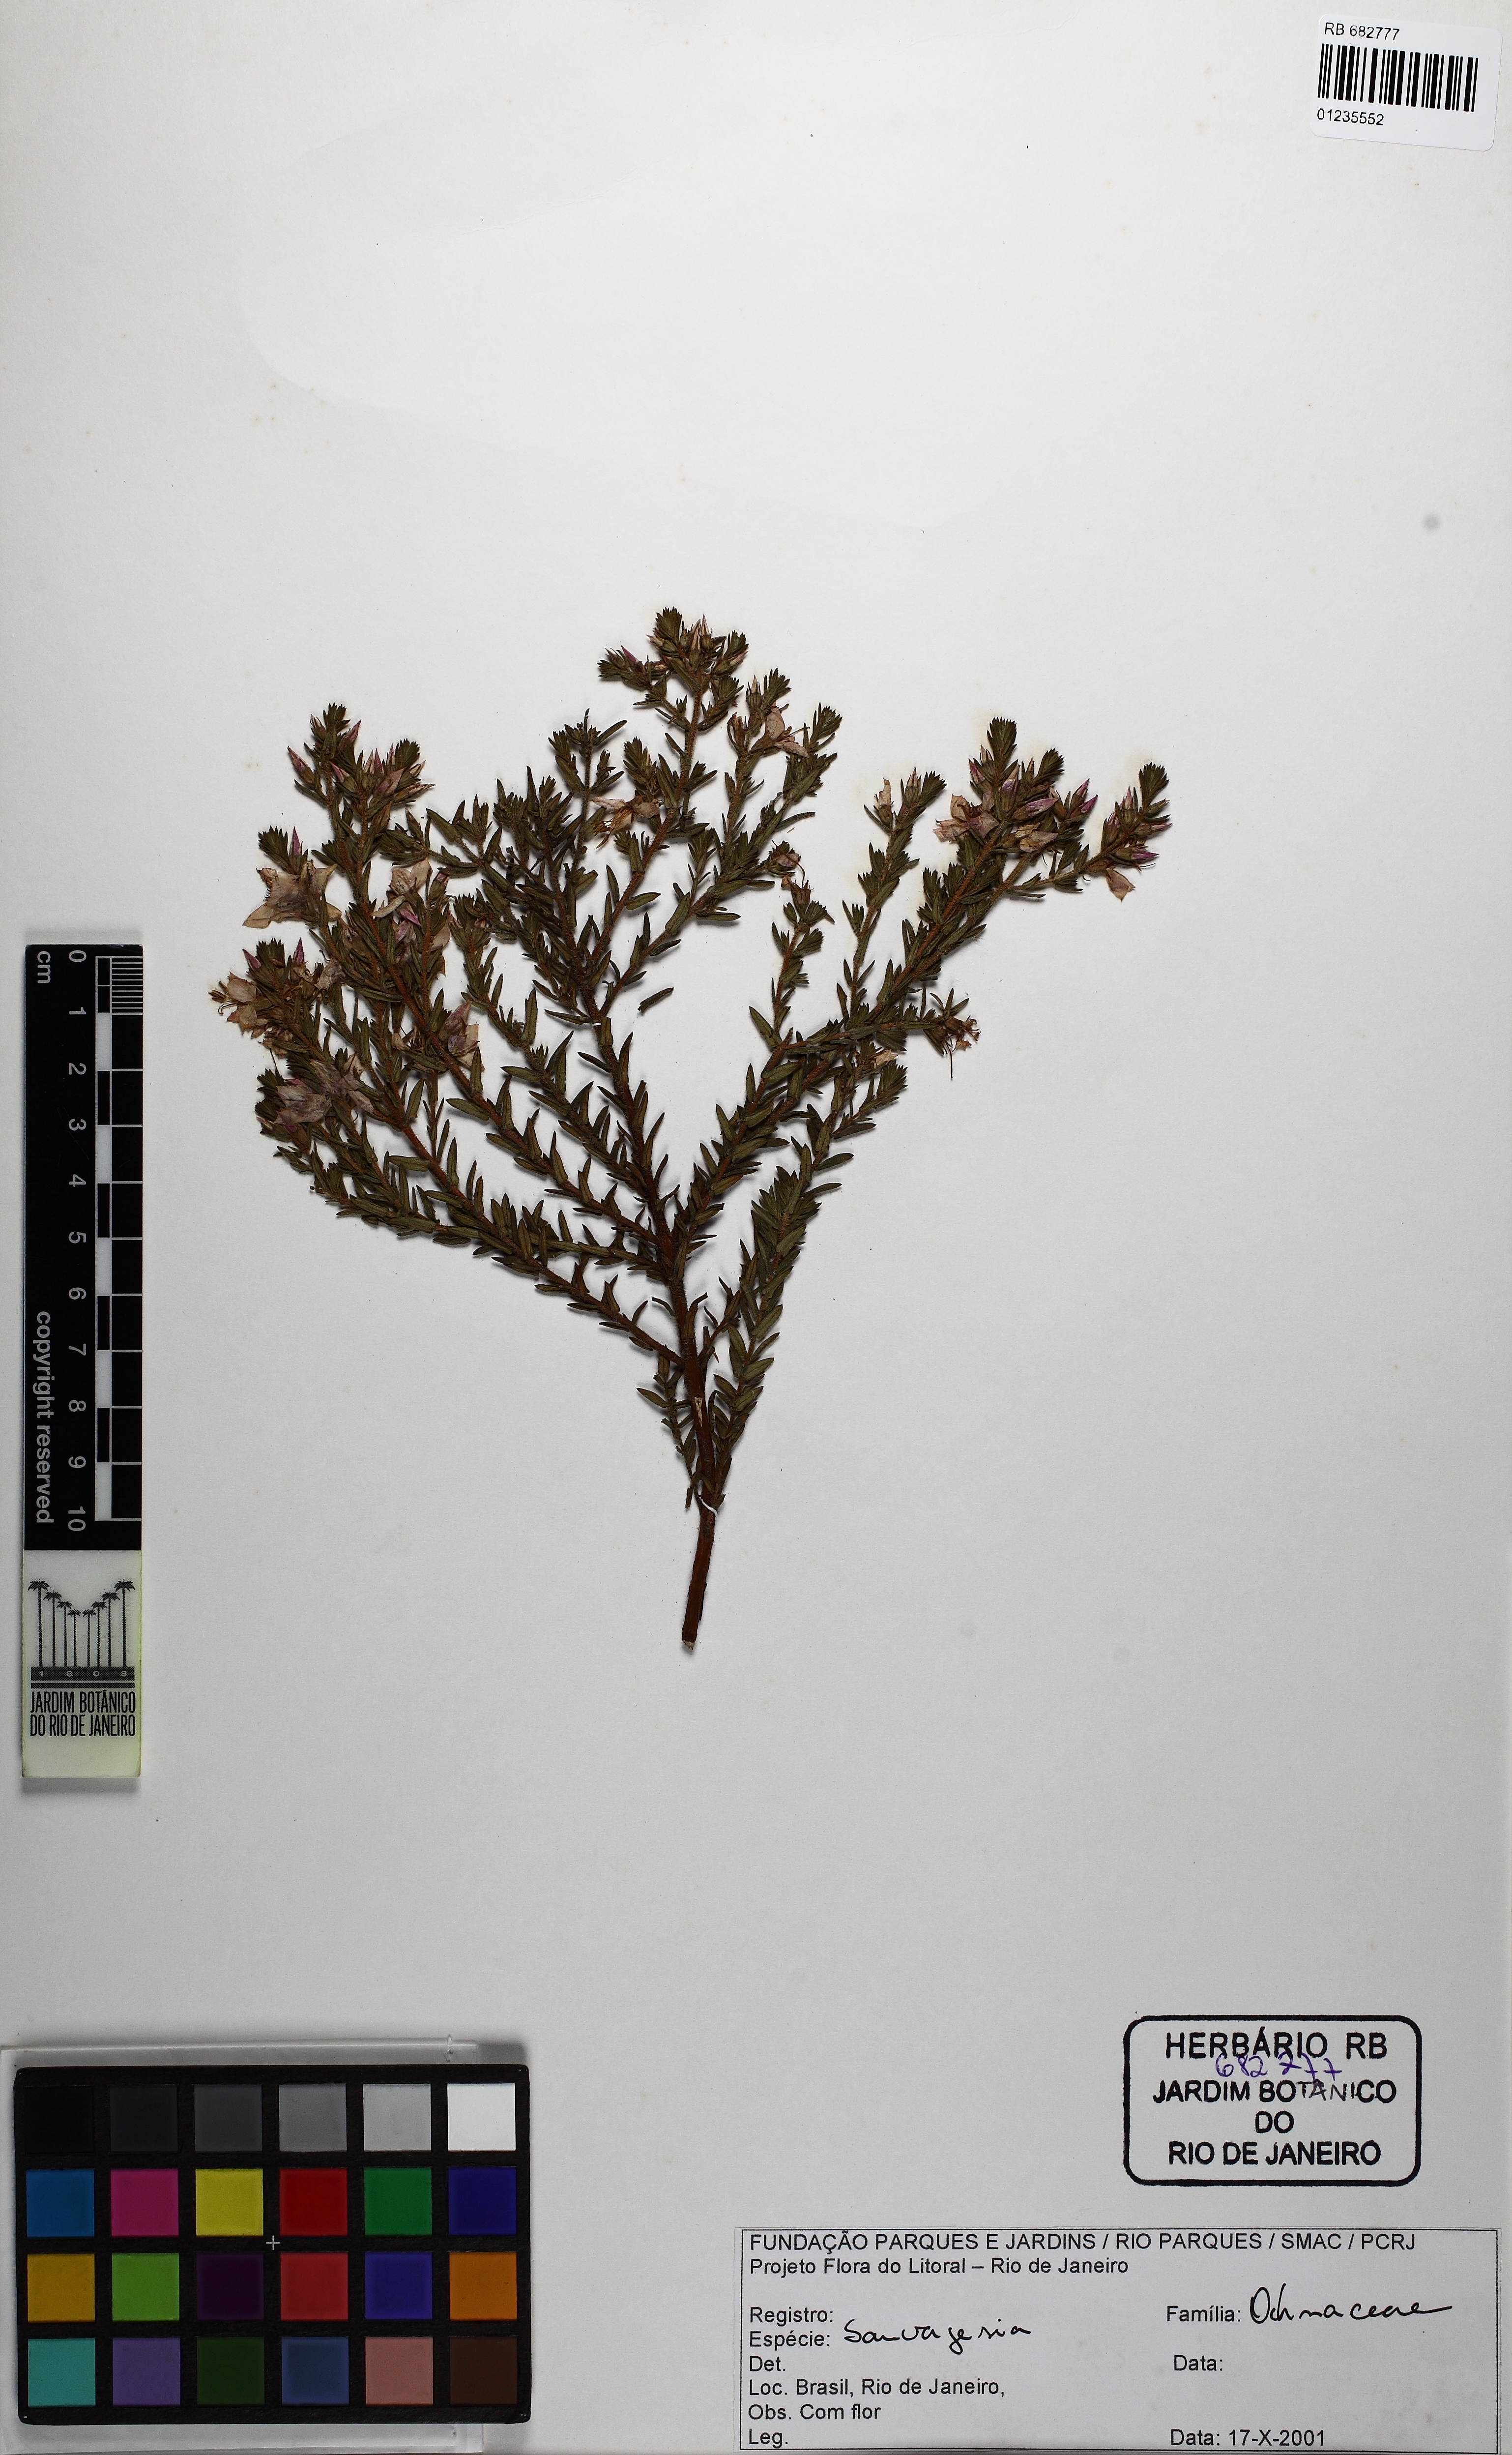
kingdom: Plantae
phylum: Tracheophyta
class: Magnoliopsida
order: Malpighiales
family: Ochnaceae
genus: Sauvagesia
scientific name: Sauvagesia
